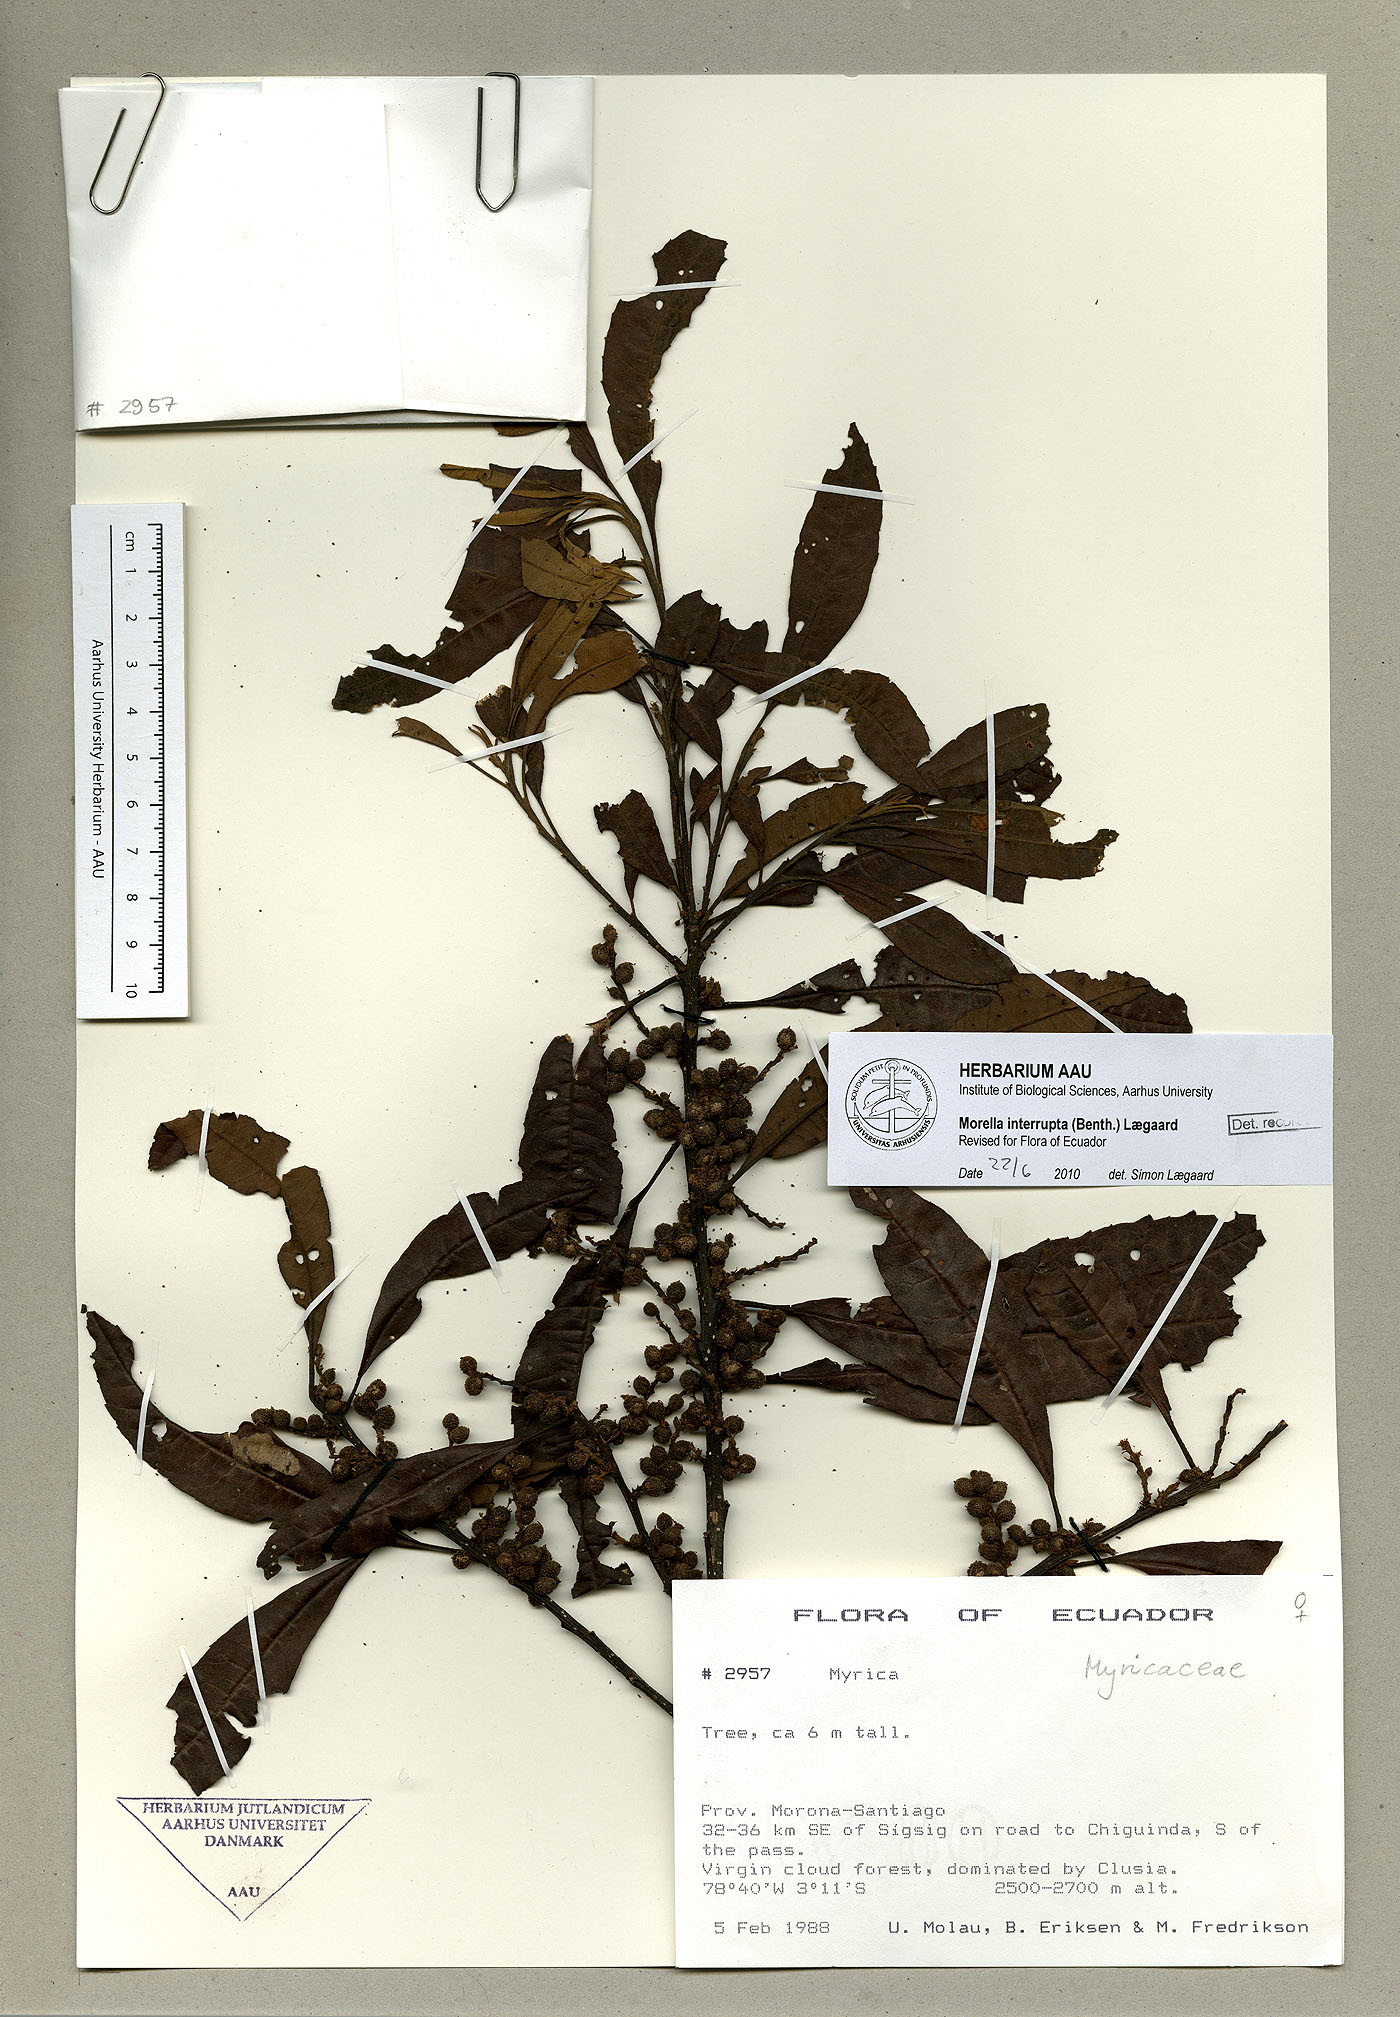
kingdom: Plantae
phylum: Tracheophyta
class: Magnoliopsida
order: Fagales
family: Myricaceae
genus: Morella
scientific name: Morella interrupta
